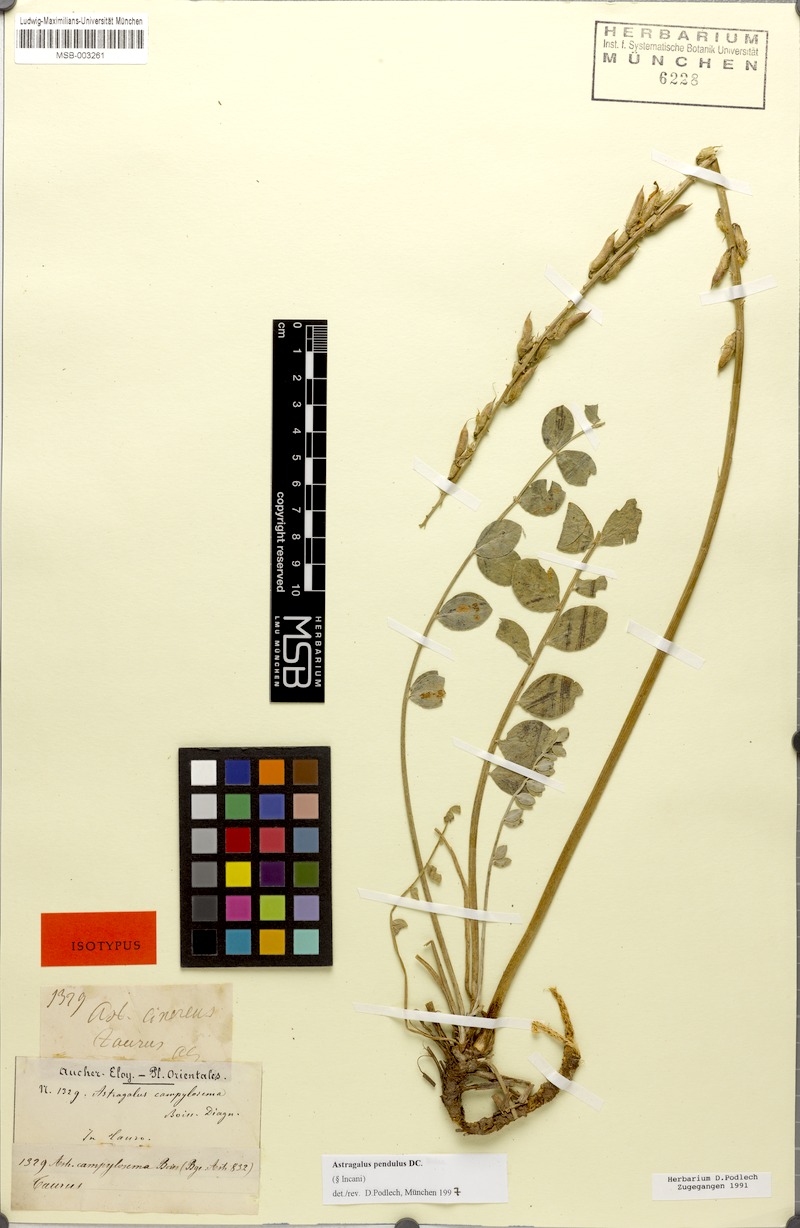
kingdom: Plantae
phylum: Tracheophyta
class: Magnoliopsida
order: Fabales
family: Fabaceae
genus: Astragalus
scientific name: Astragalus pendulus
